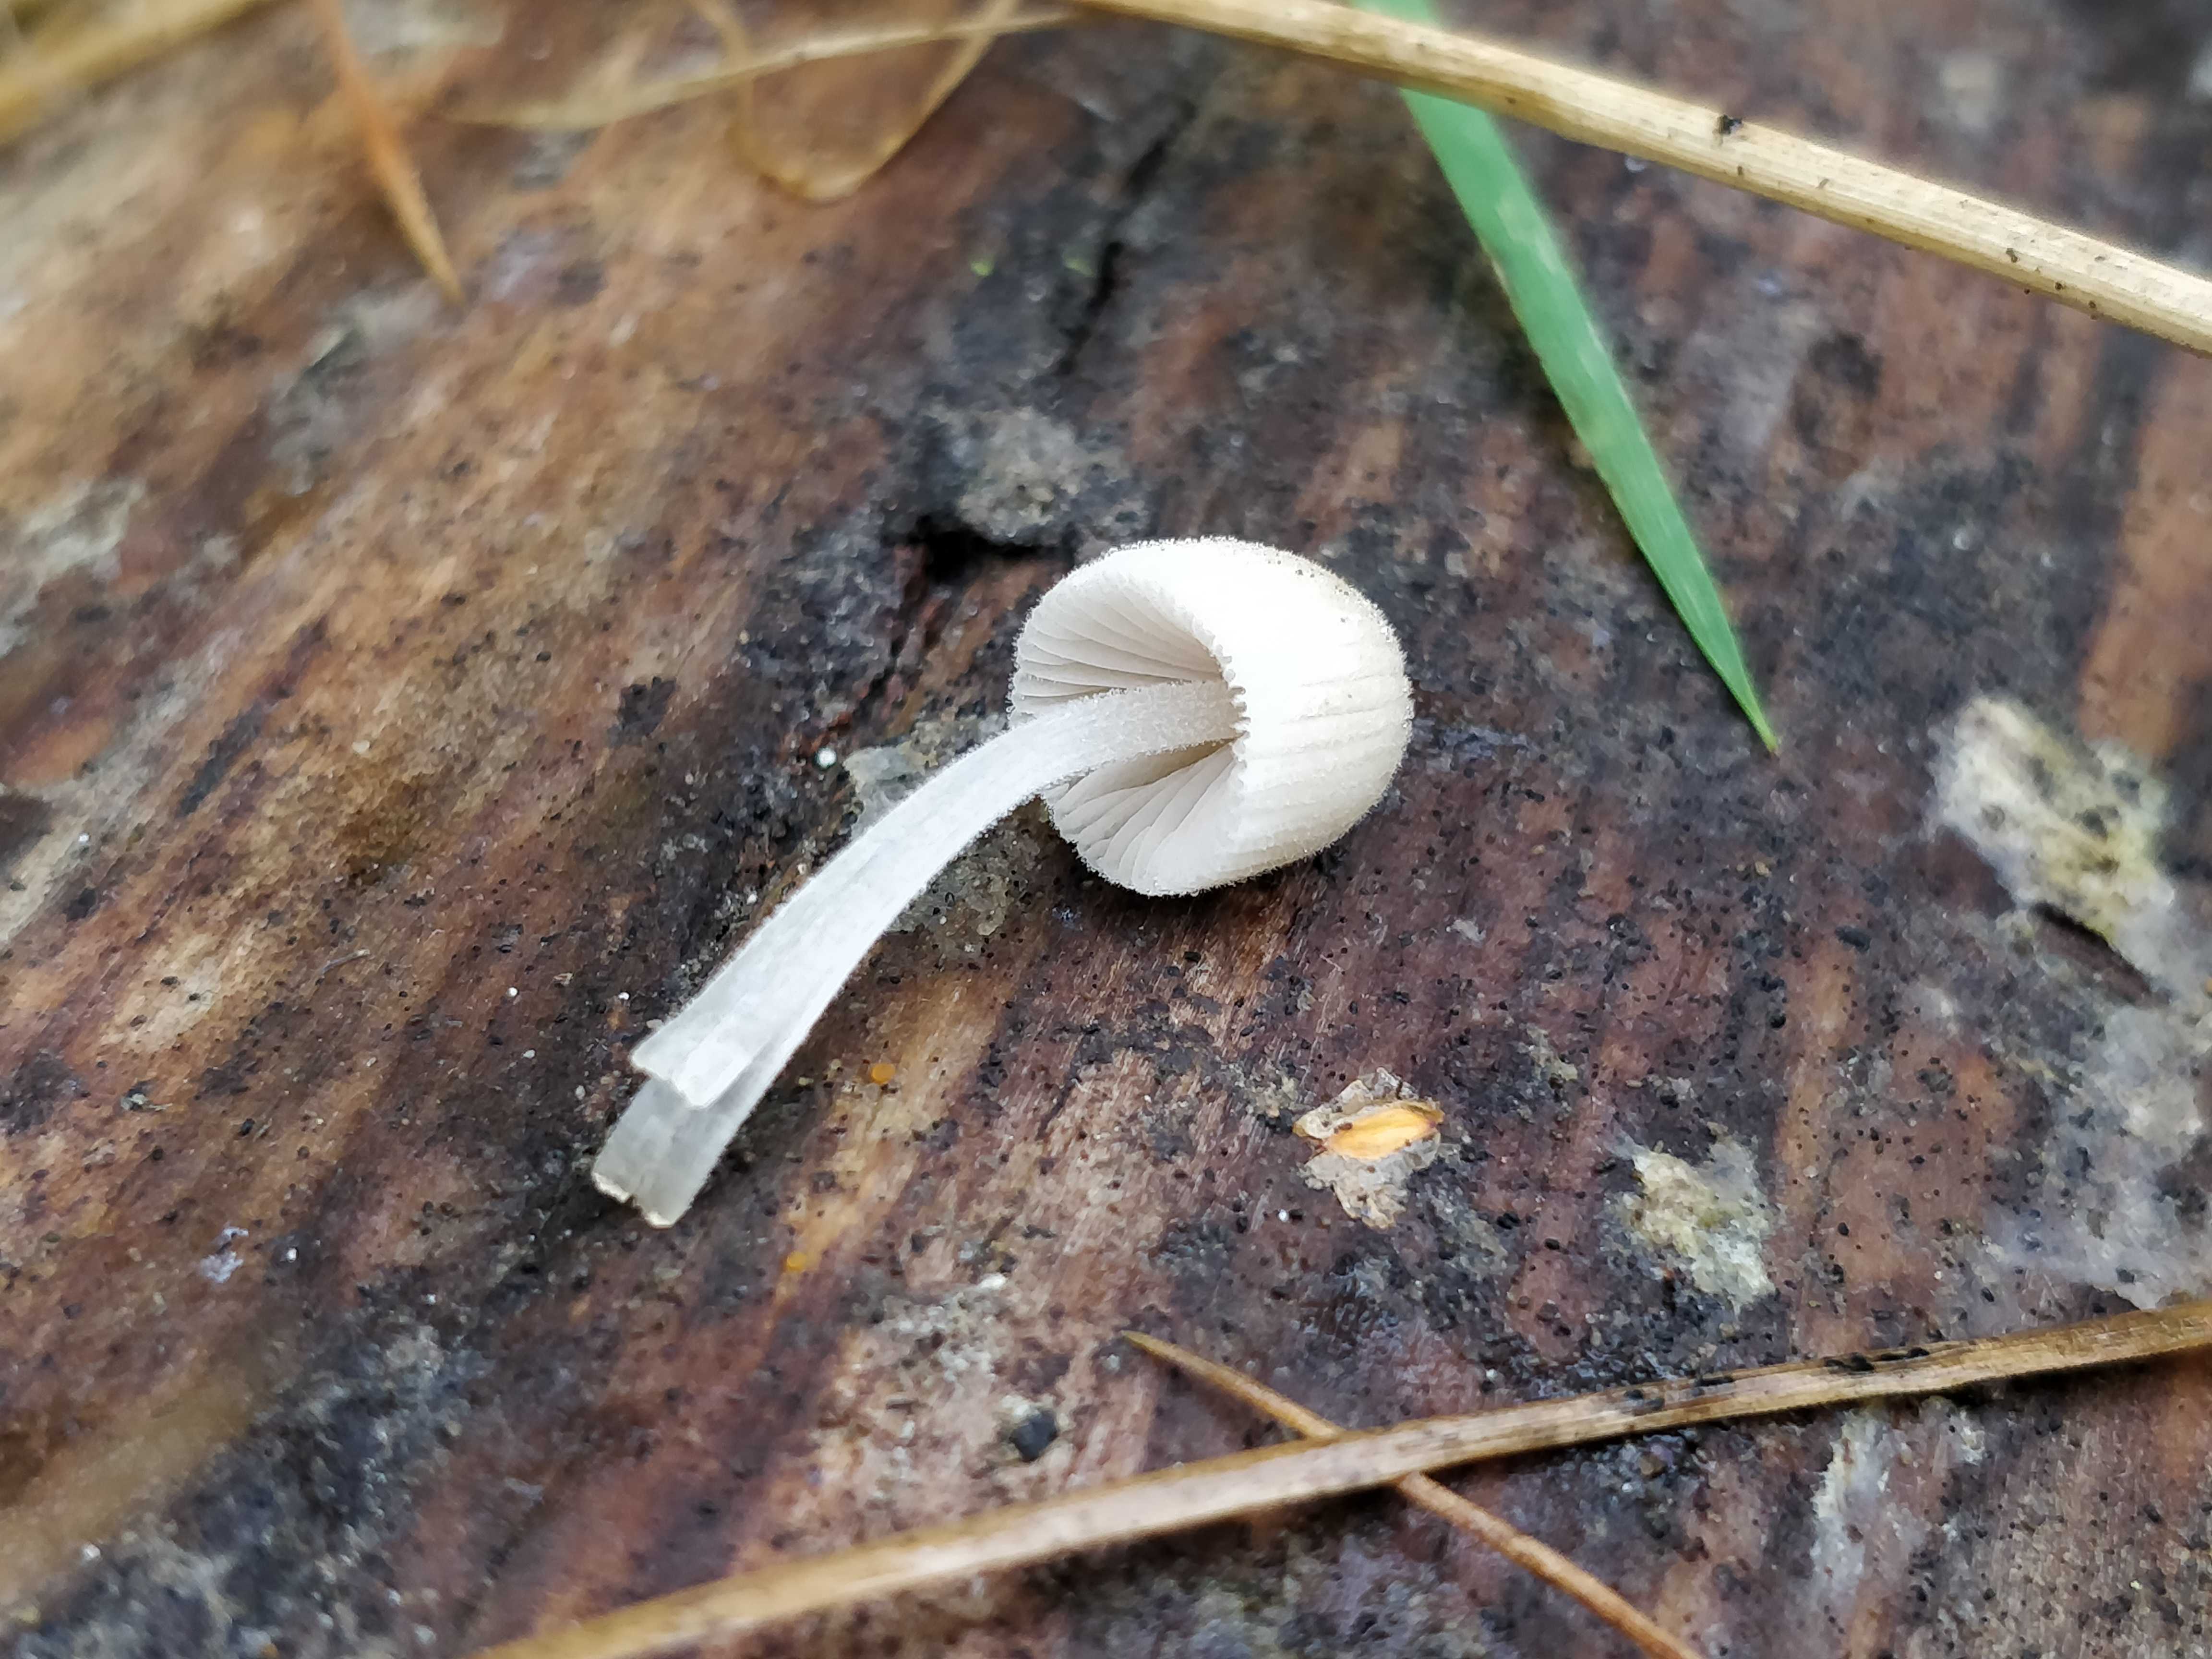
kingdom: Fungi
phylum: Basidiomycota
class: Agaricomycetes
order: Agaricales
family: Psathyrellaceae
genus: Coprinellus
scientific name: Coprinellus disseminatus
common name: bredsået blækhat
